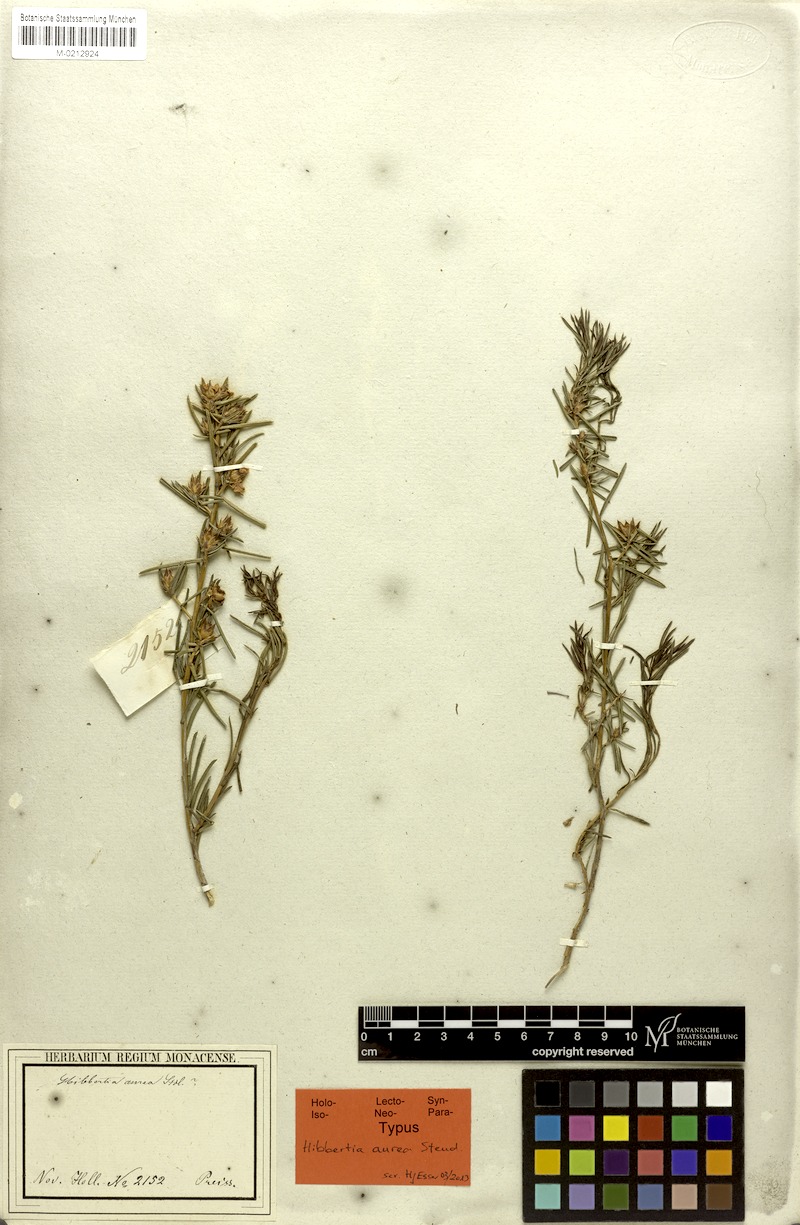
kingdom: Plantae
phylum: Tracheophyta
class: Magnoliopsida
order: Dilleniales
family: Dilleniaceae
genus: Hibbertia
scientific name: Hibbertia aurea
